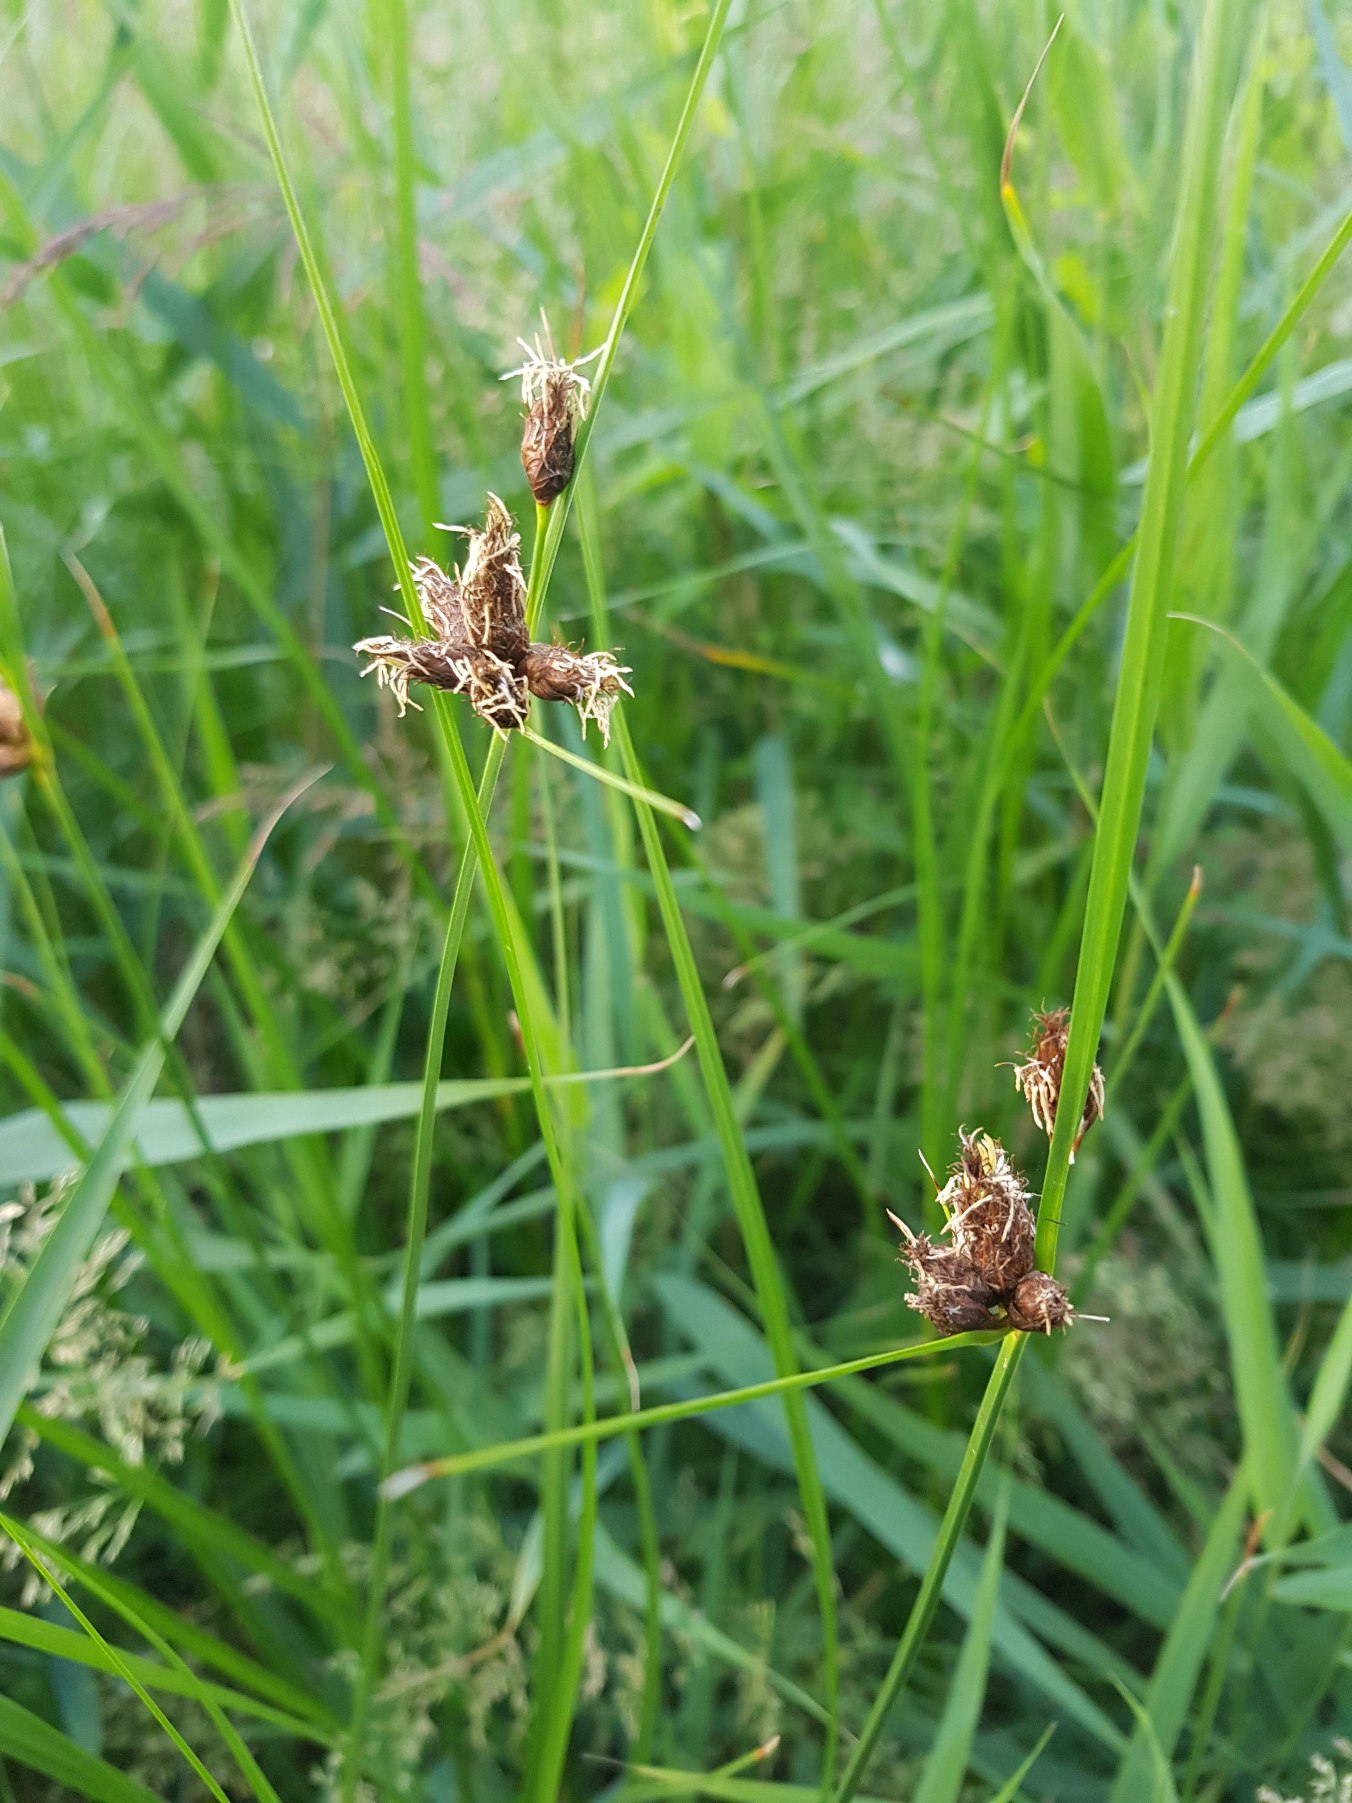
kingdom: Plantae
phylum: Tracheophyta
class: Liliopsida
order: Poales
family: Cyperaceae
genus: Bolboschoenus
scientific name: Bolboschoenus maritimus
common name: Strand-kogleaks
